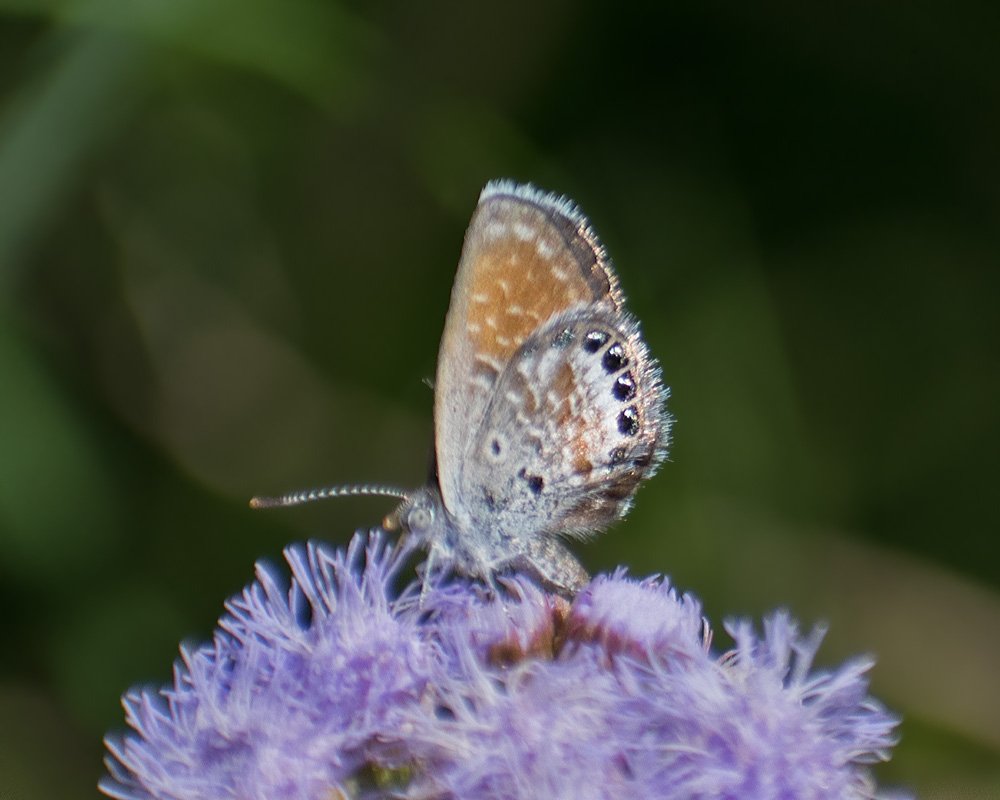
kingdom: Animalia
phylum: Arthropoda
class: Insecta
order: Lepidoptera
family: Lycaenidae
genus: Brephidium
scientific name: Brephidium exilis
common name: Western Pygmy-Blue
